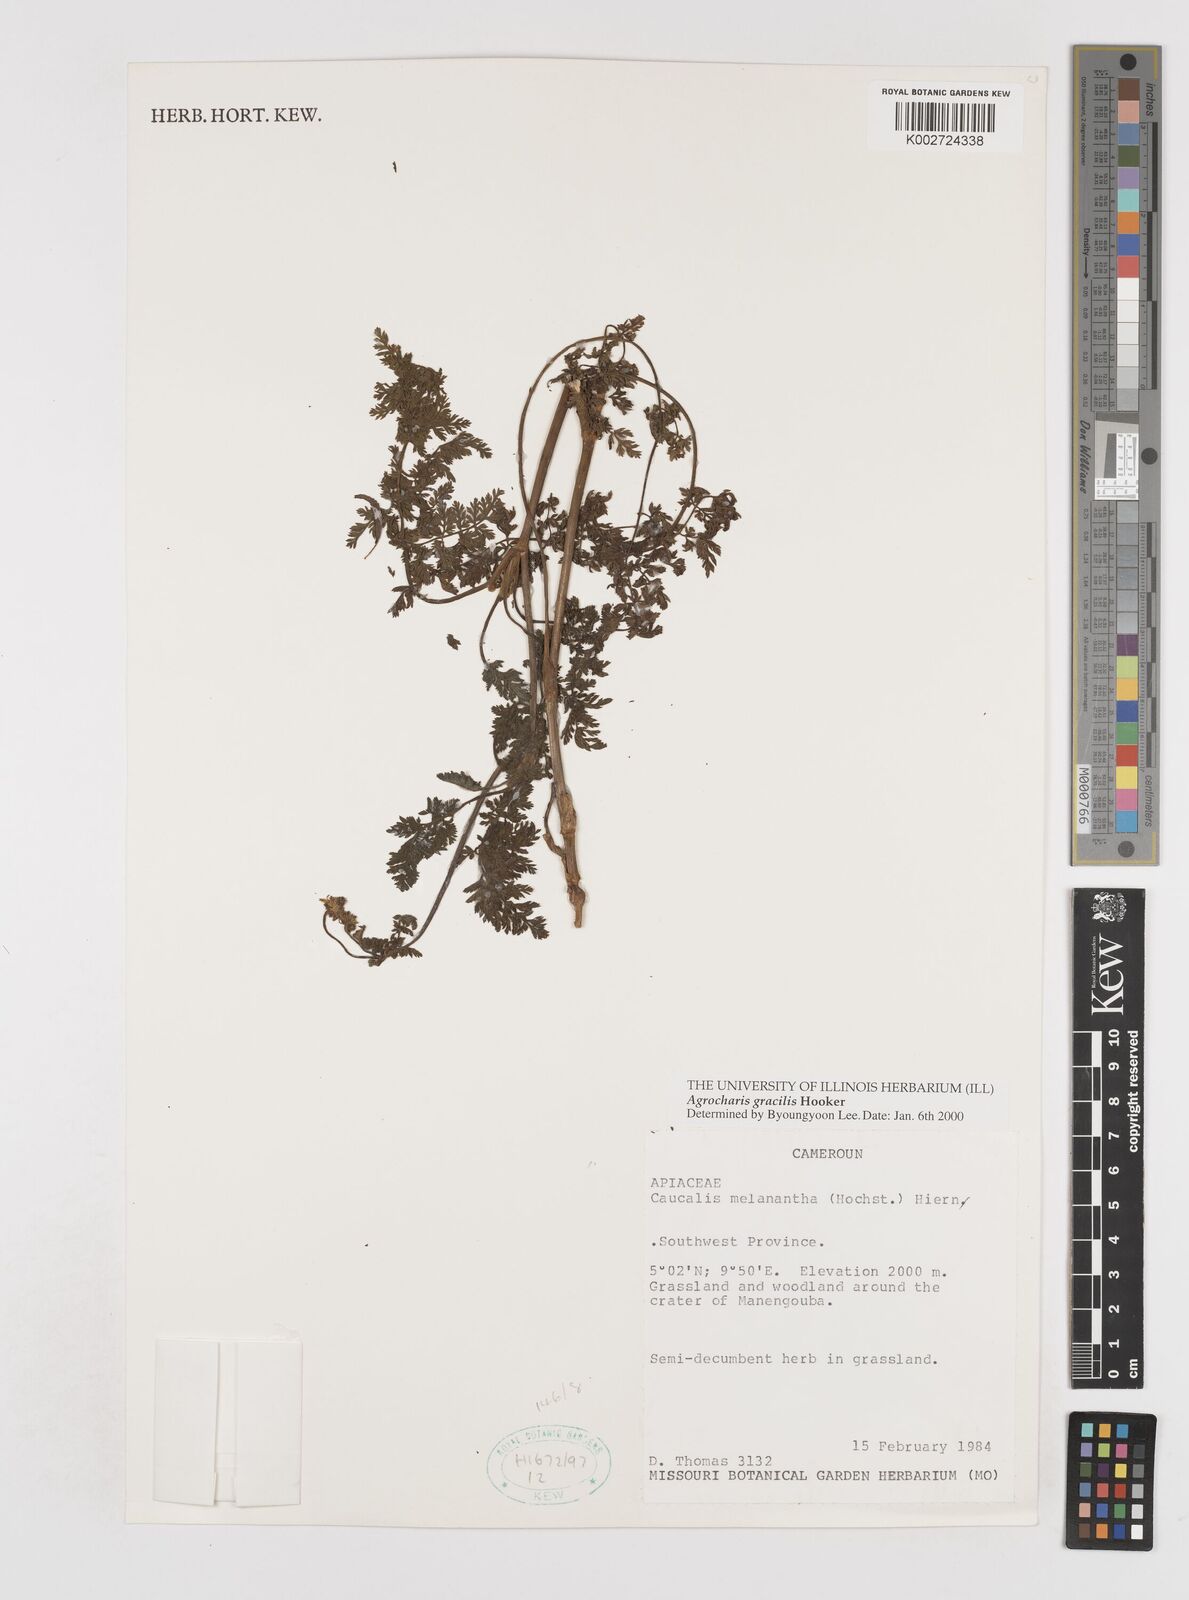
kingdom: Plantae
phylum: Tracheophyta
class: Magnoliopsida
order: Apiales
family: Apiaceae
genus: Daucus
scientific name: Daucus melananthus
